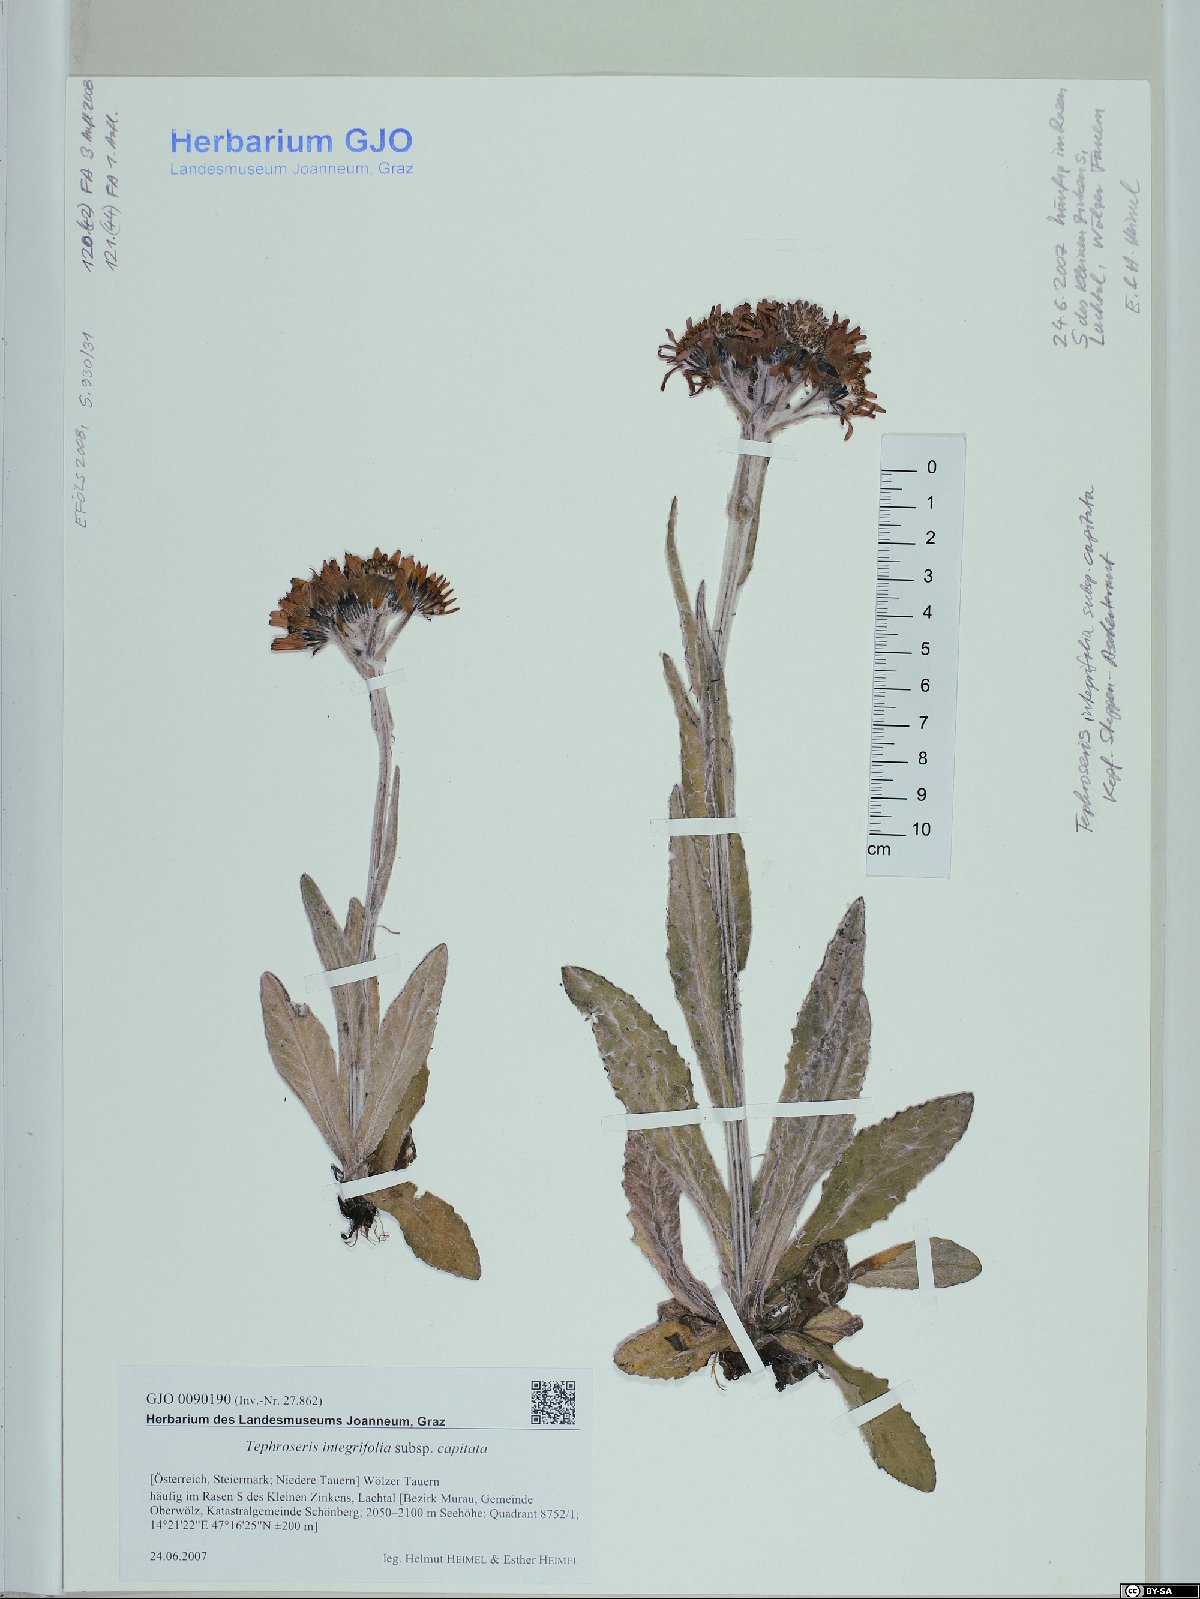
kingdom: Plantae
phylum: Tracheophyta
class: Magnoliopsida
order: Asterales
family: Asteraceae
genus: Tephroseris
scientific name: Tephroseris integrifolia
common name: Field fleawort
